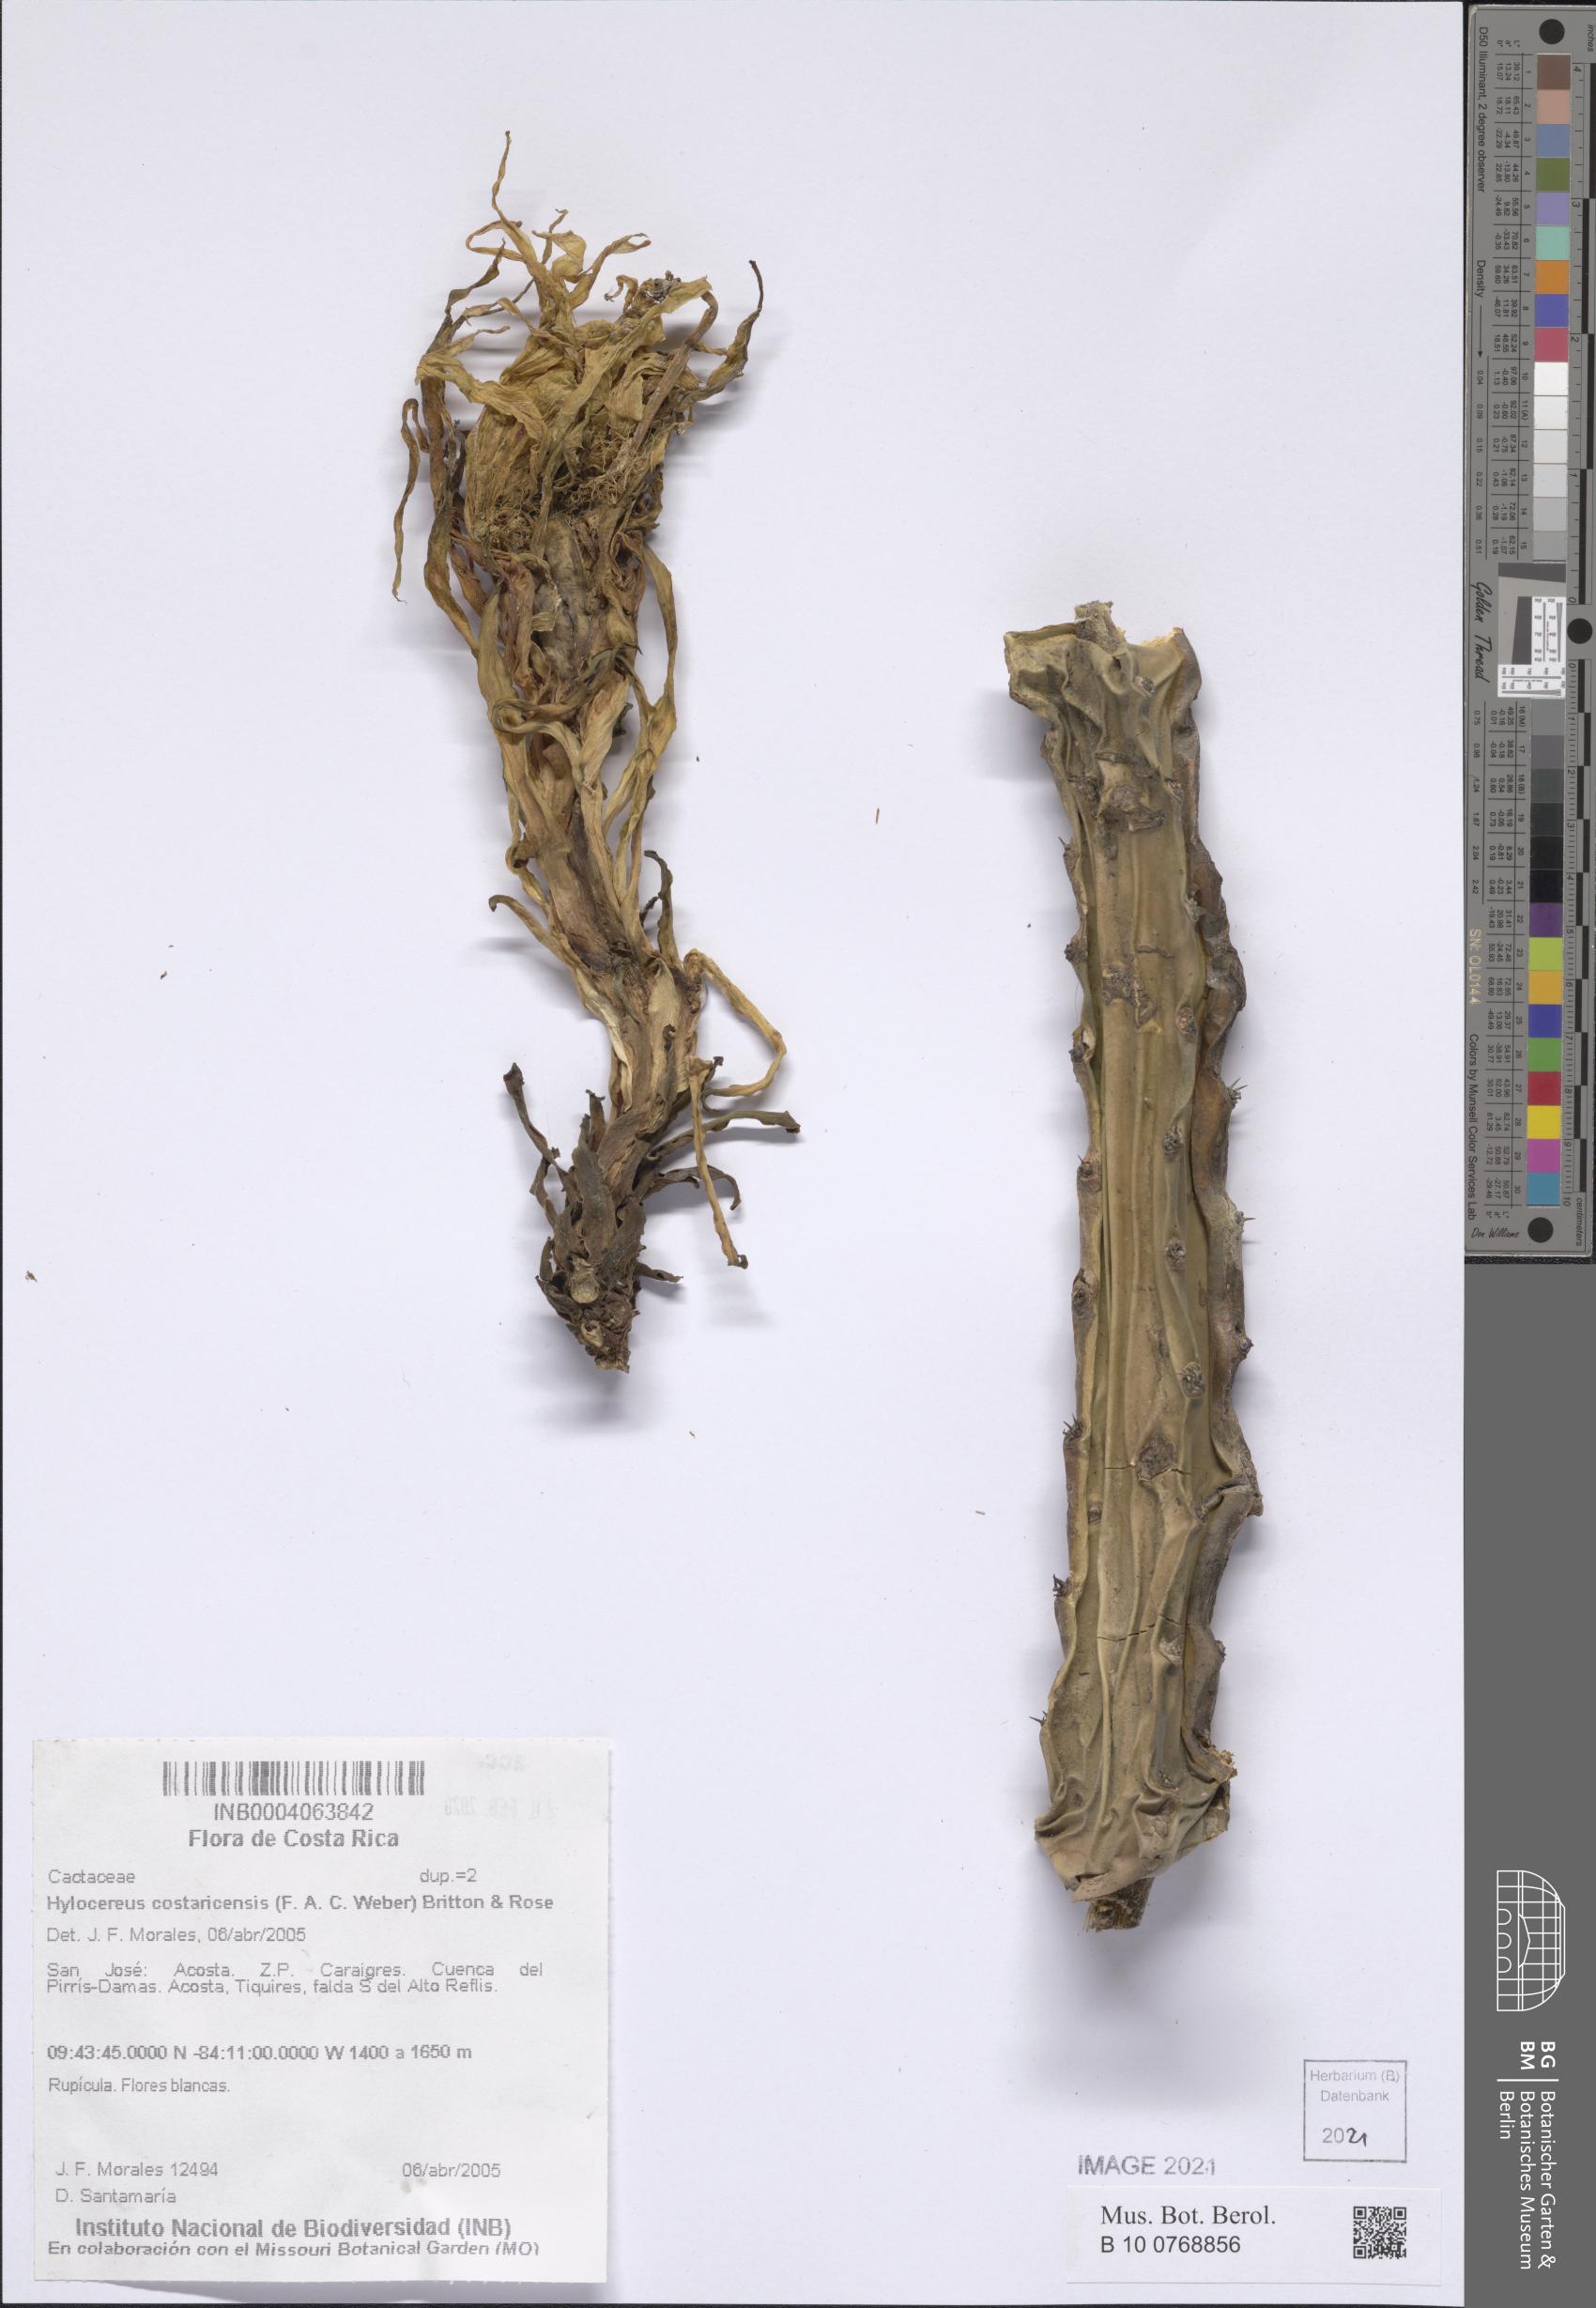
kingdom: Plantae
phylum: Tracheophyta
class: Magnoliopsida
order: Caryophyllales
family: Cactaceae
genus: Selenicereus
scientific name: Selenicereus costaricensis
